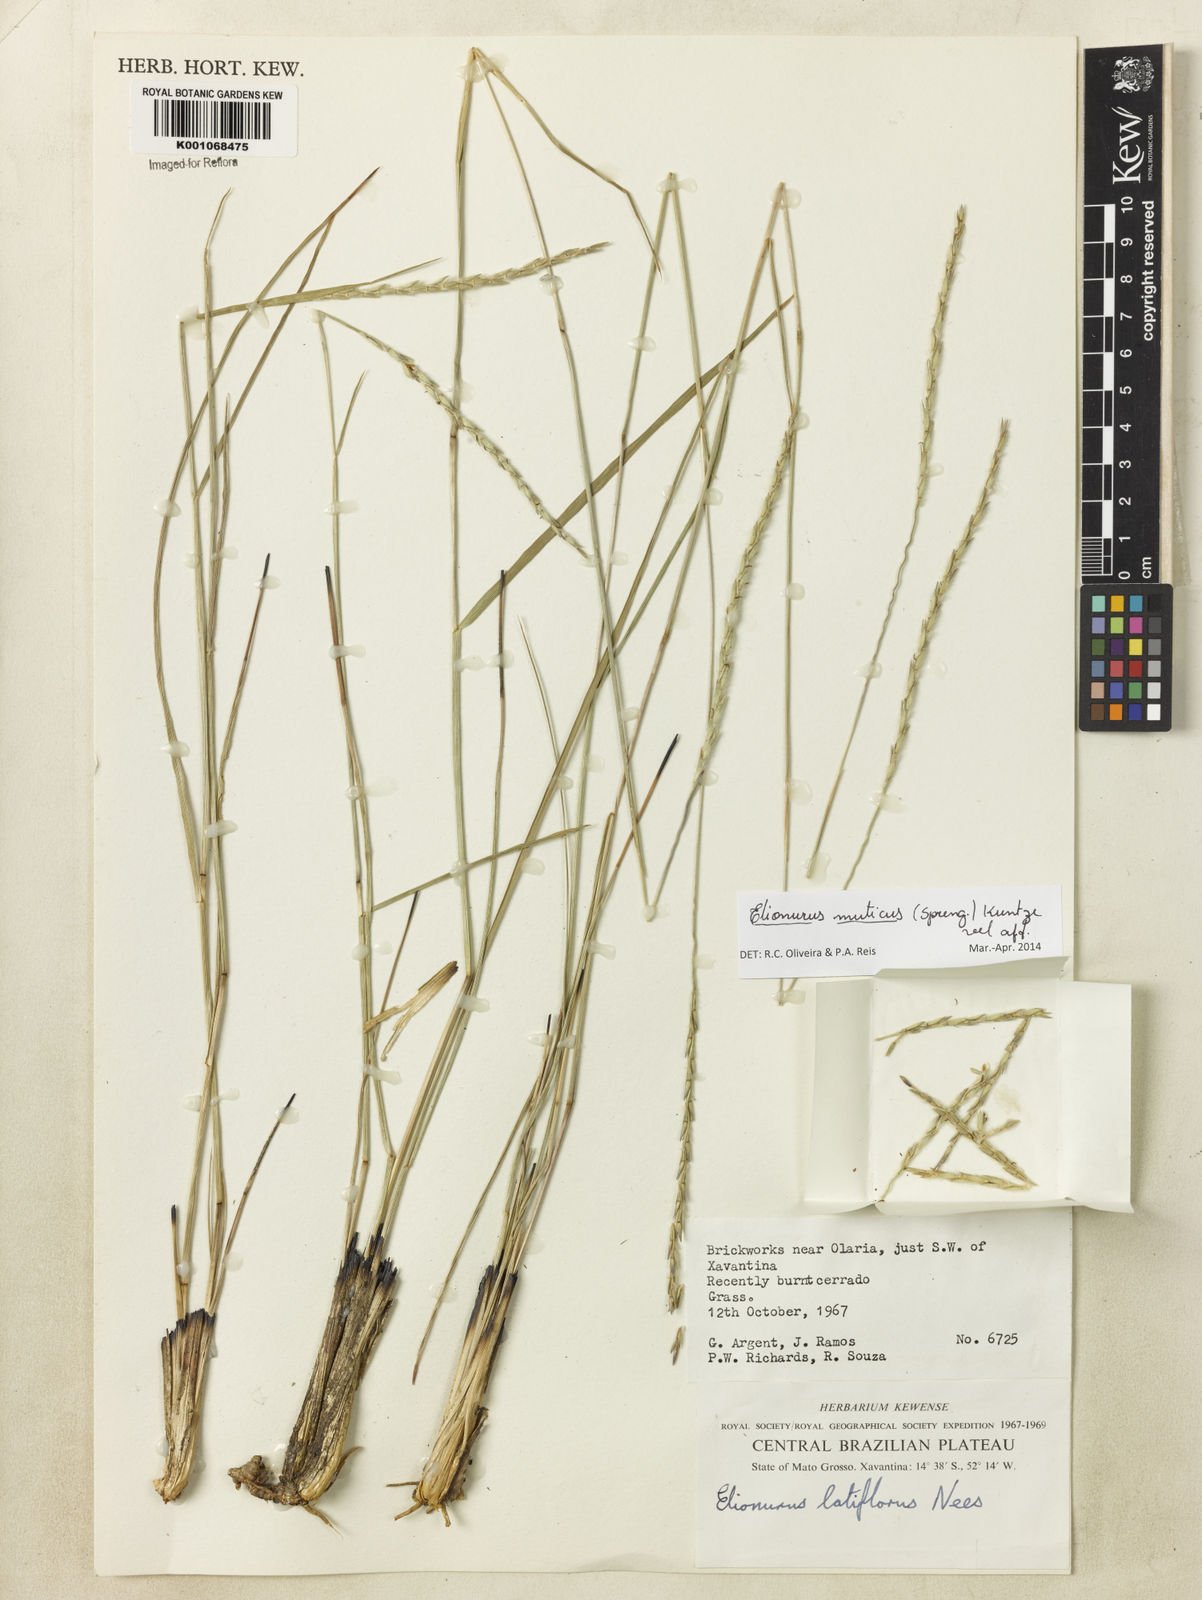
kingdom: Plantae
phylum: Tracheophyta
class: Liliopsida
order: Poales
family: Poaceae
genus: Elionurus
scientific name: Elionurus muticus
